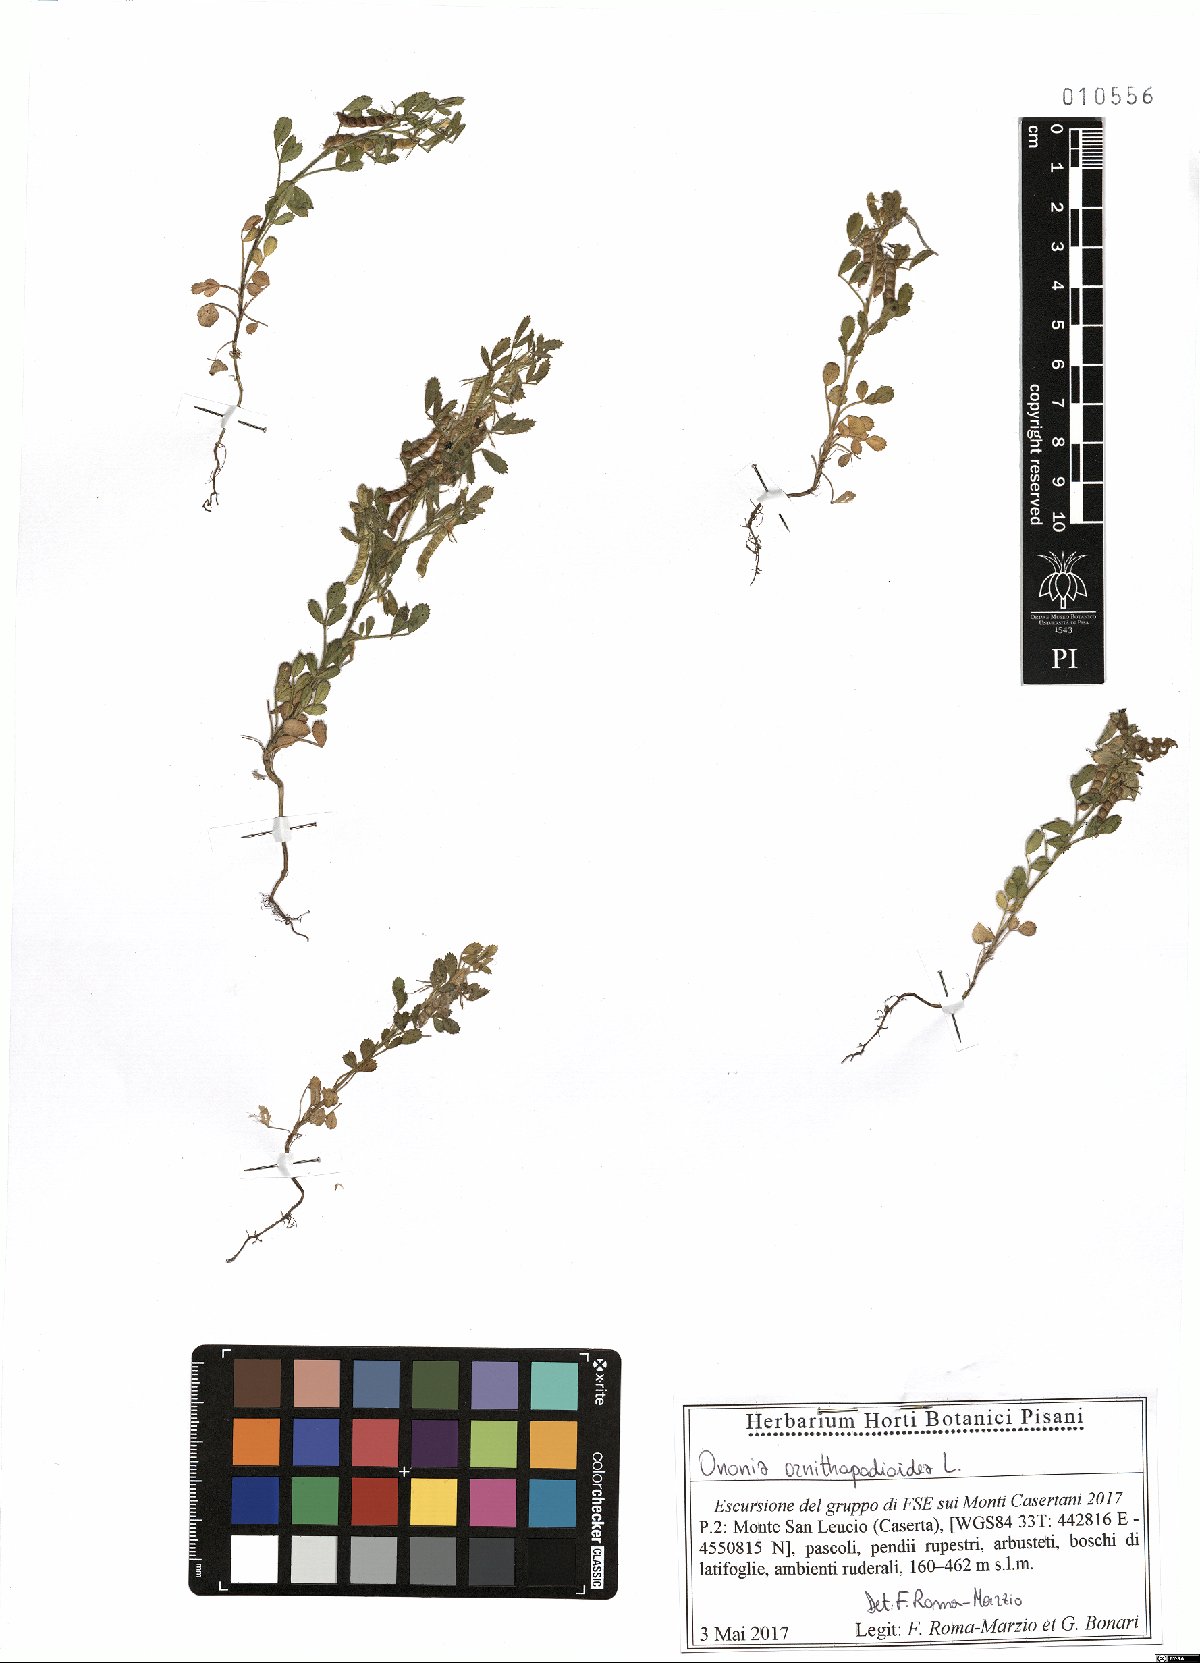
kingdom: Plantae
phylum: Tracheophyta
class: Magnoliopsida
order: Fabales
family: Fabaceae
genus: Ononis
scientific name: Ononis ornithopodioides
